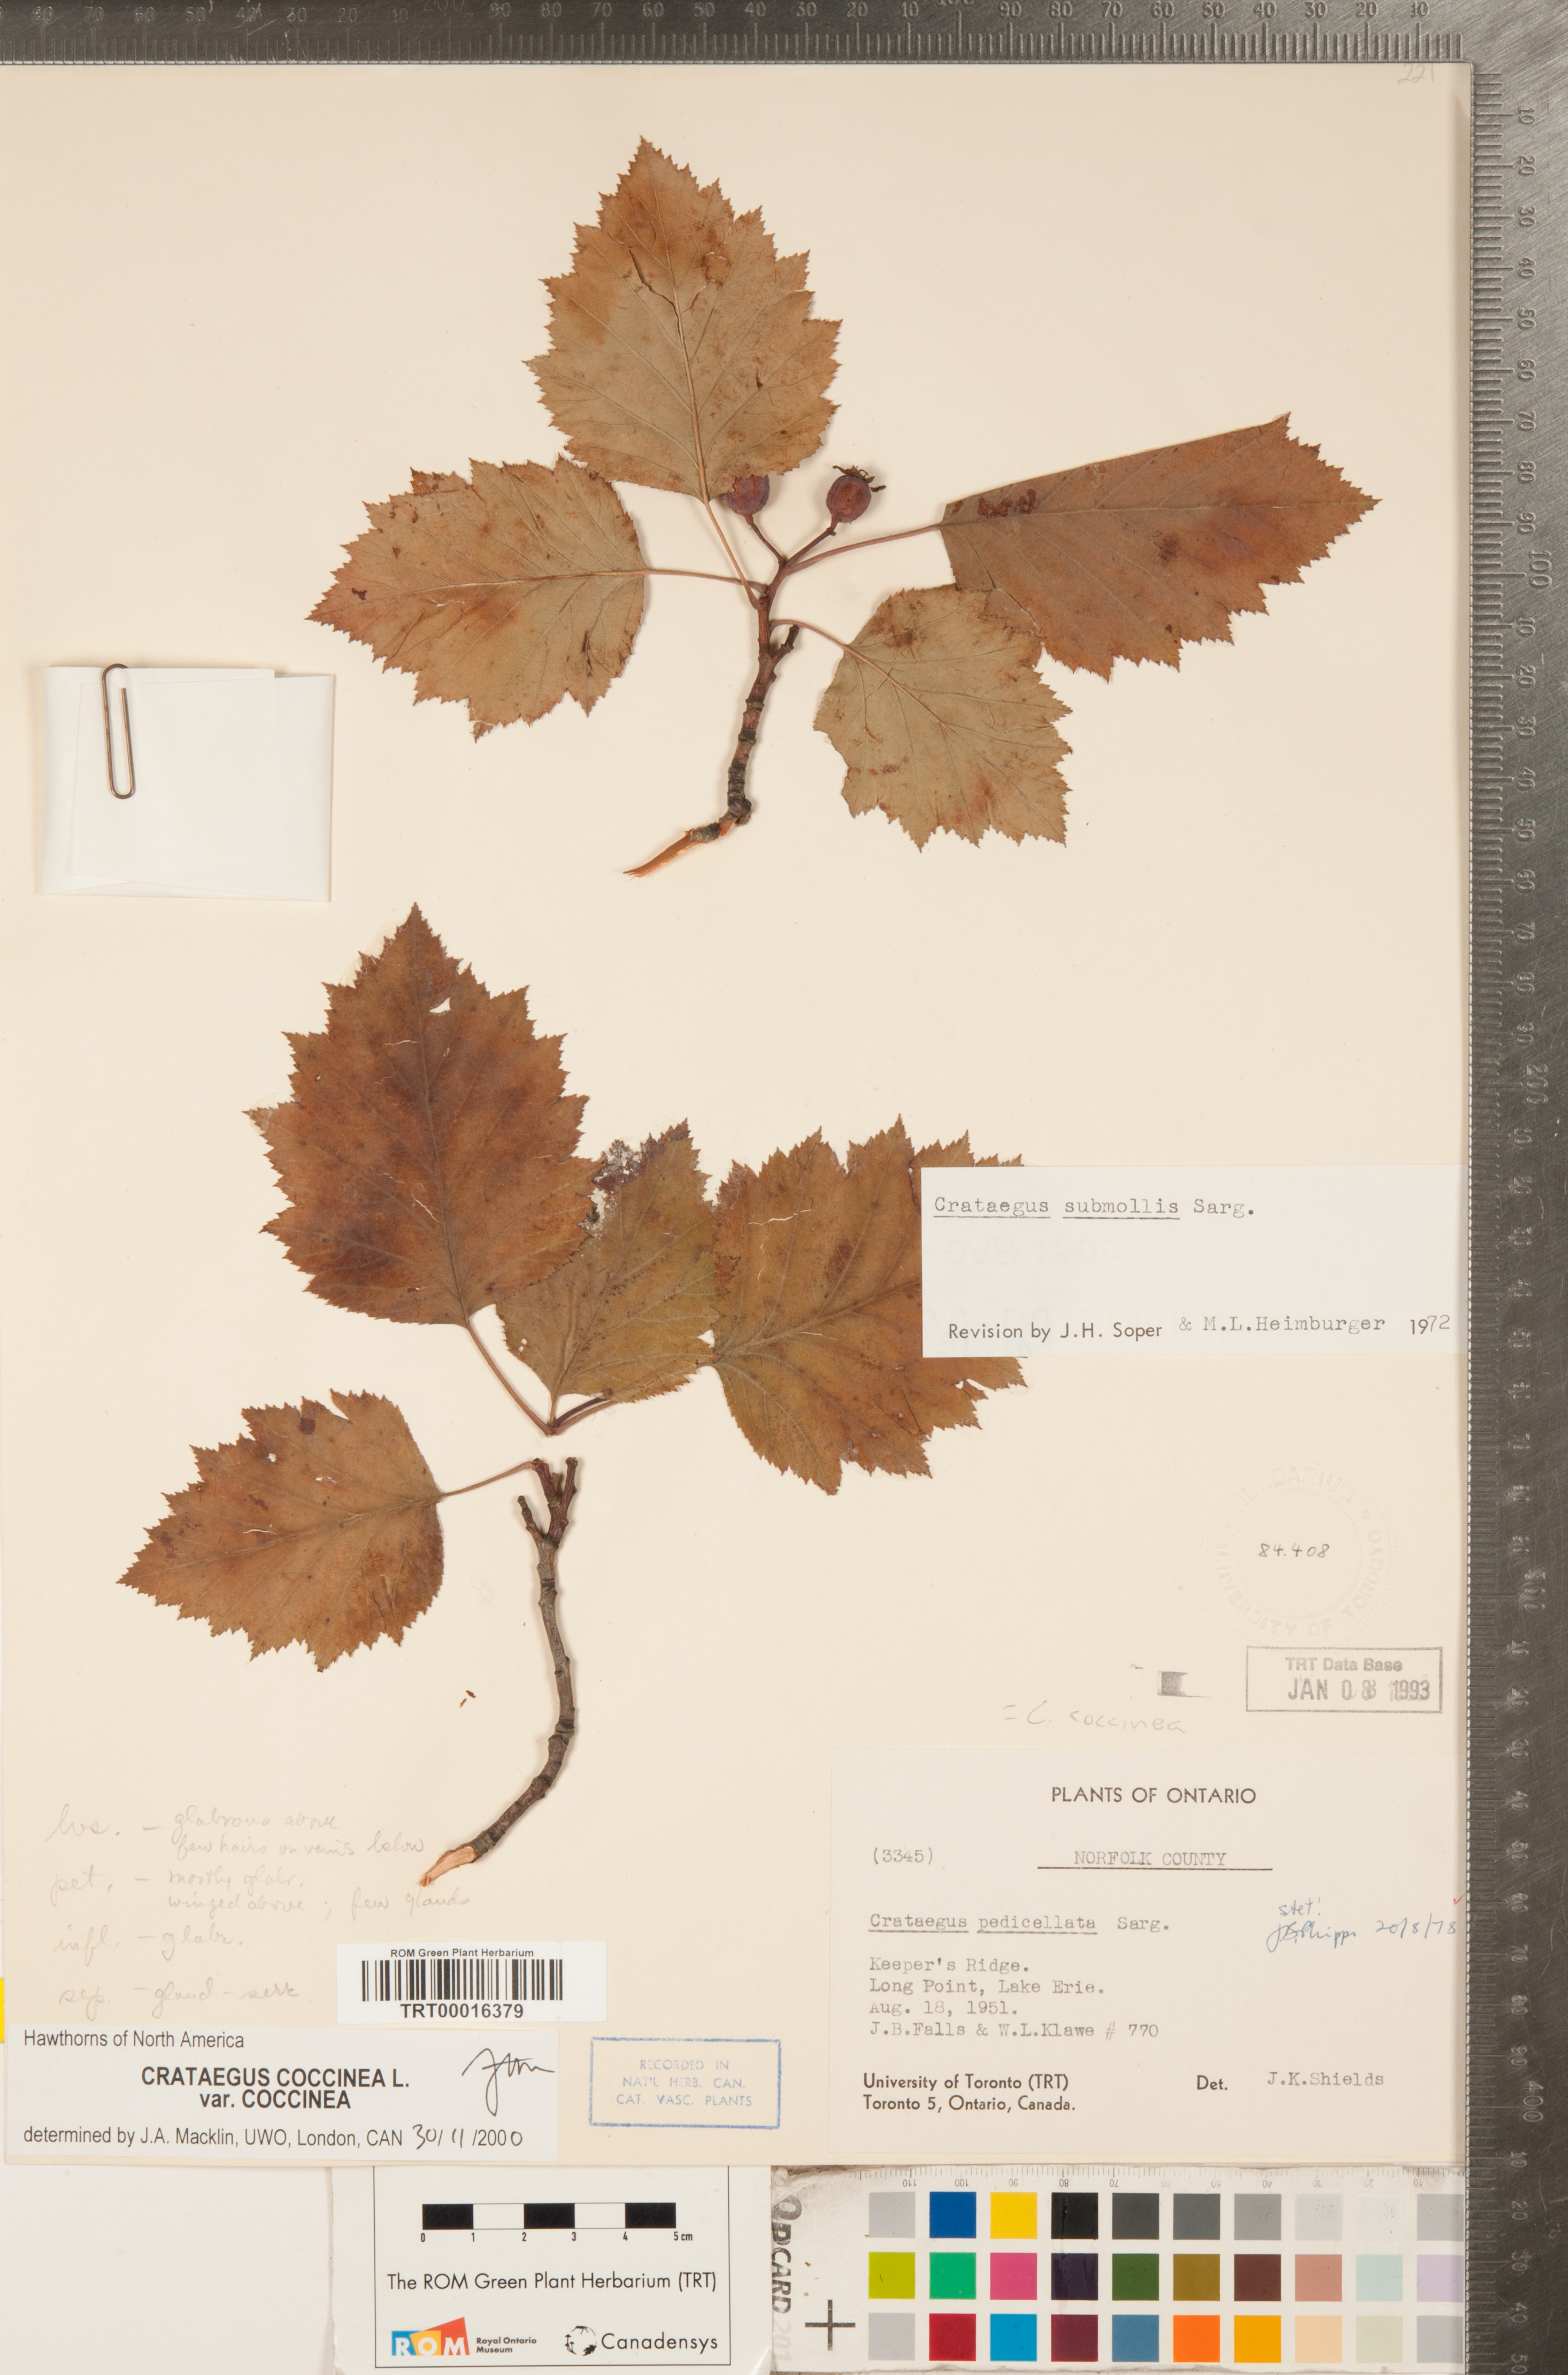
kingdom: Plantae
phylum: Tracheophyta
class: Magnoliopsida
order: Rosales
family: Rosaceae
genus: Crataegus
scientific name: Crataegus coccinea
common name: Scarlet hawthorn
